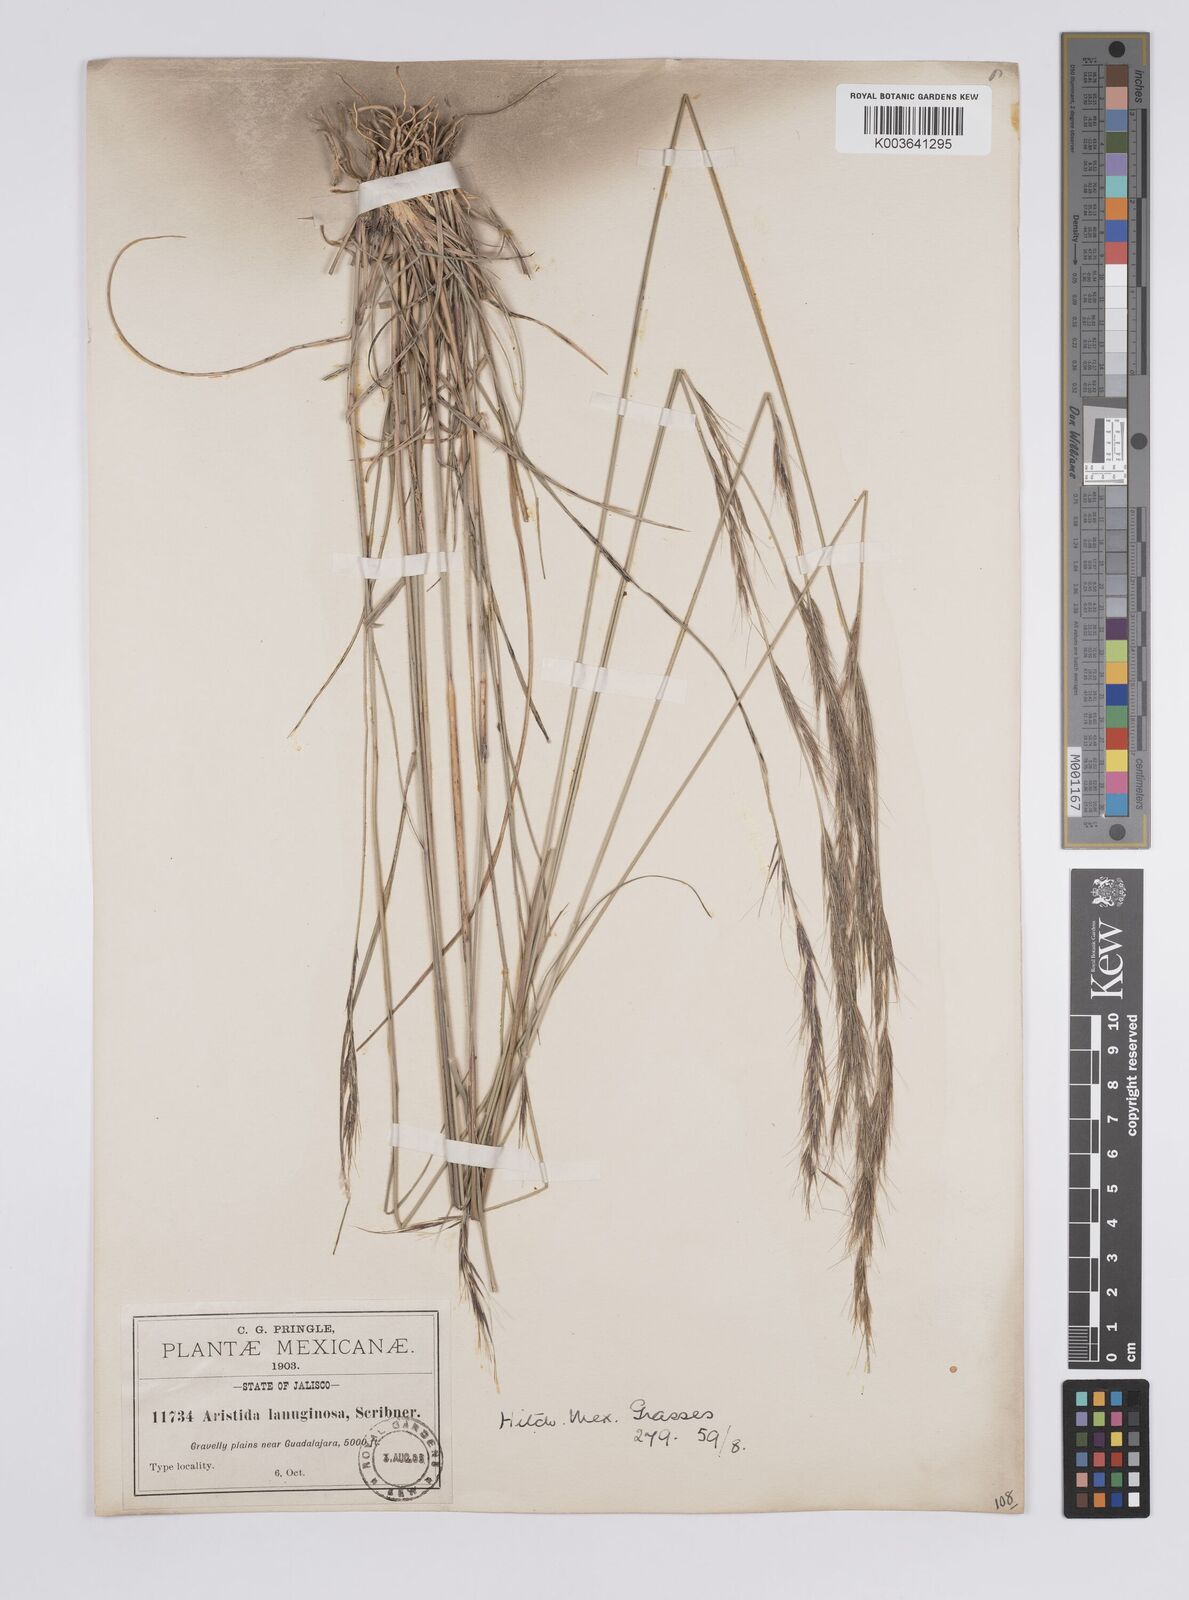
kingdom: Plantae
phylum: Tracheophyta
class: Liliopsida
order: Poales
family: Poaceae
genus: Aristida
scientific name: Aristida scribneriana
